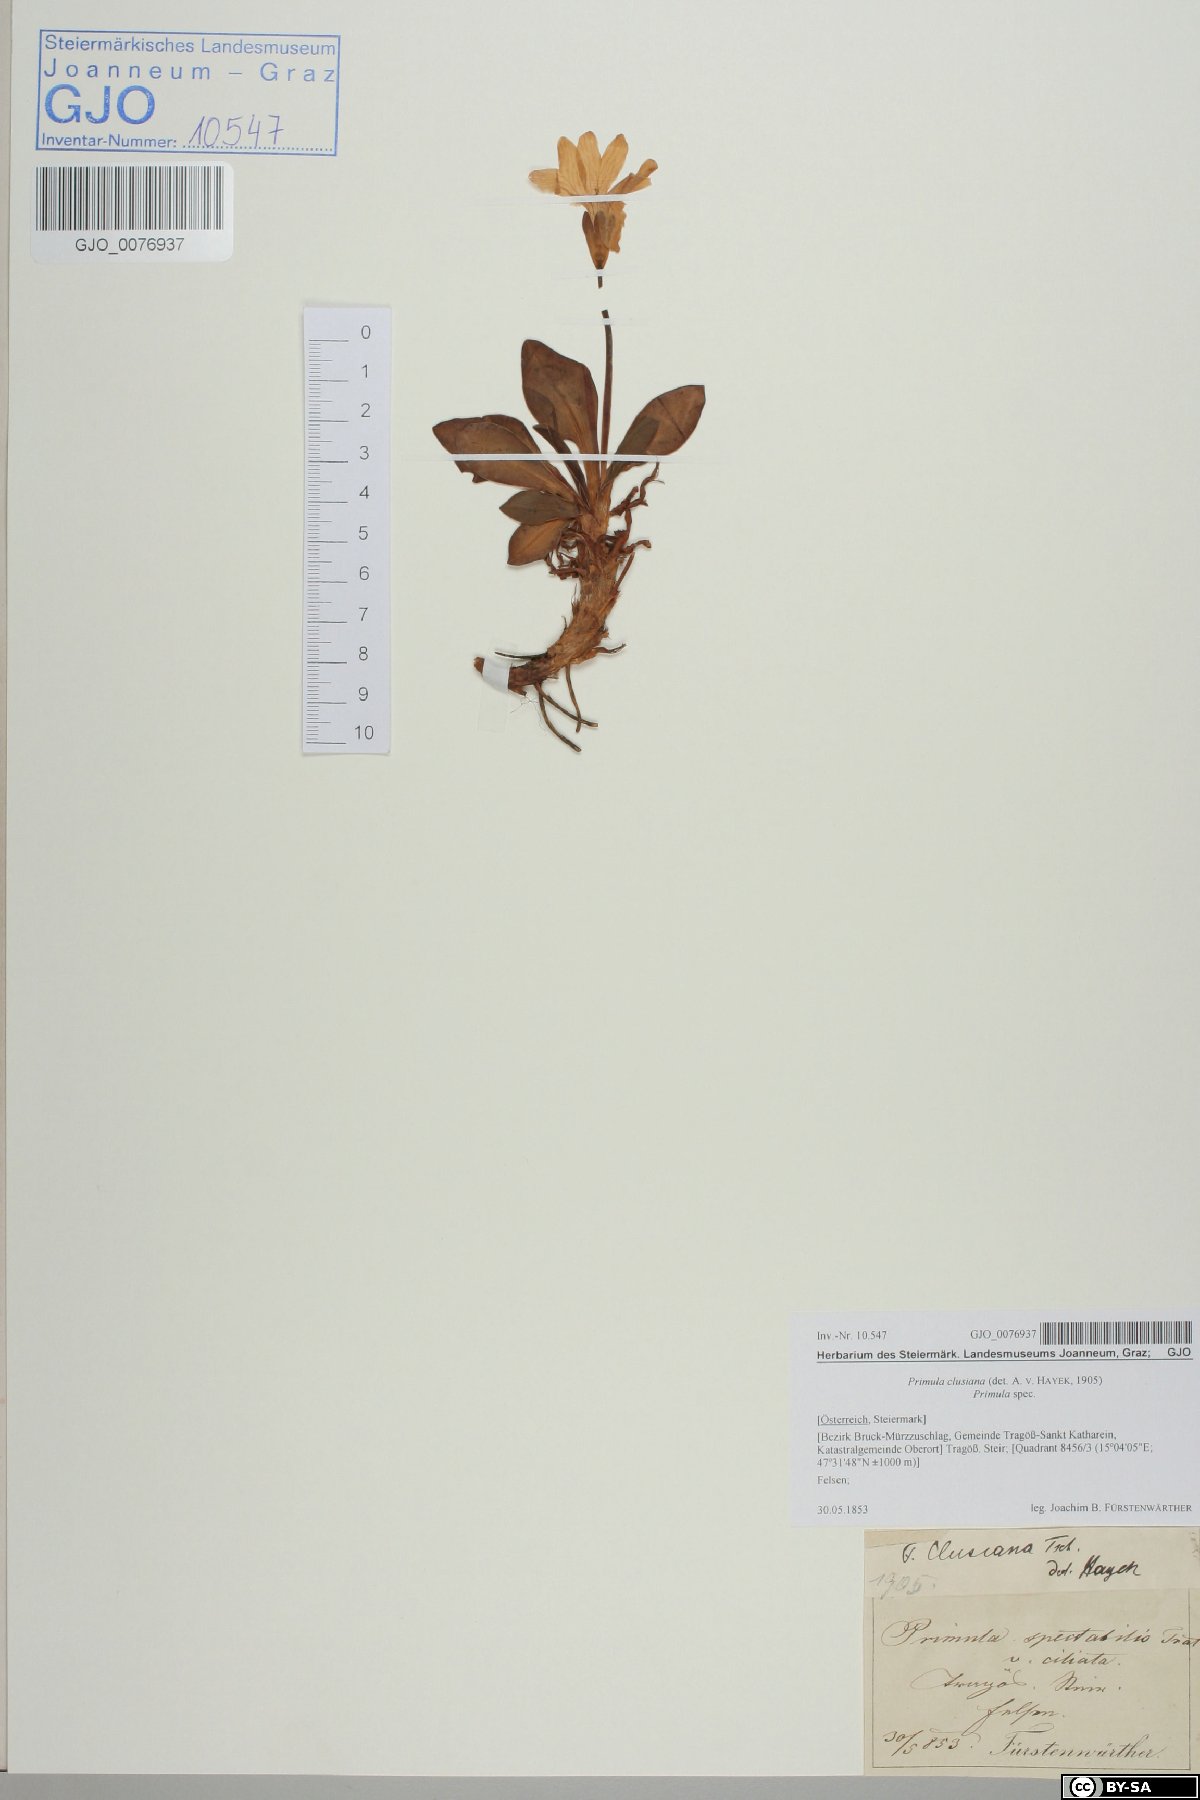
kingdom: Plantae
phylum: Tracheophyta
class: Magnoliopsida
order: Ericales
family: Primulaceae
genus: Primula
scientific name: Primula clusiana
